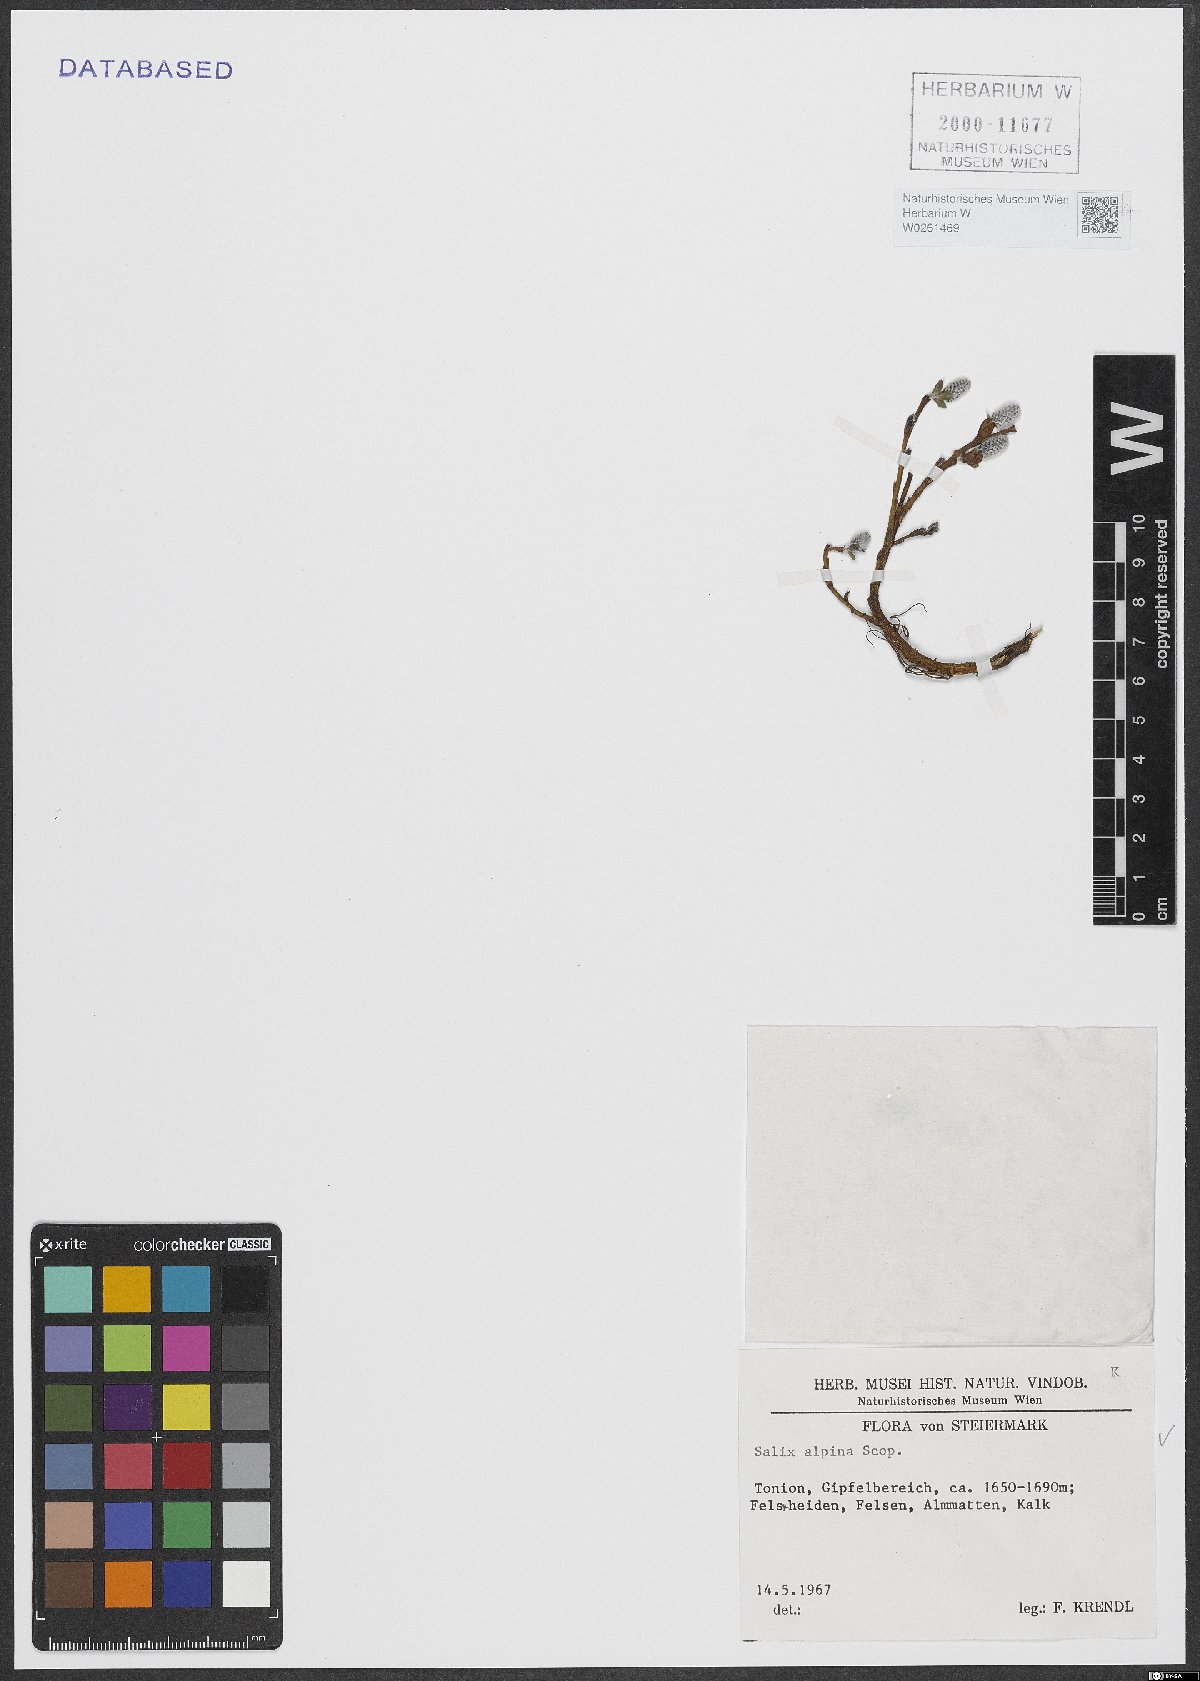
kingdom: Plantae
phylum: Tracheophyta
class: Magnoliopsida
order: Malpighiales
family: Salicaceae
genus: Salix
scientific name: Salix alpina
